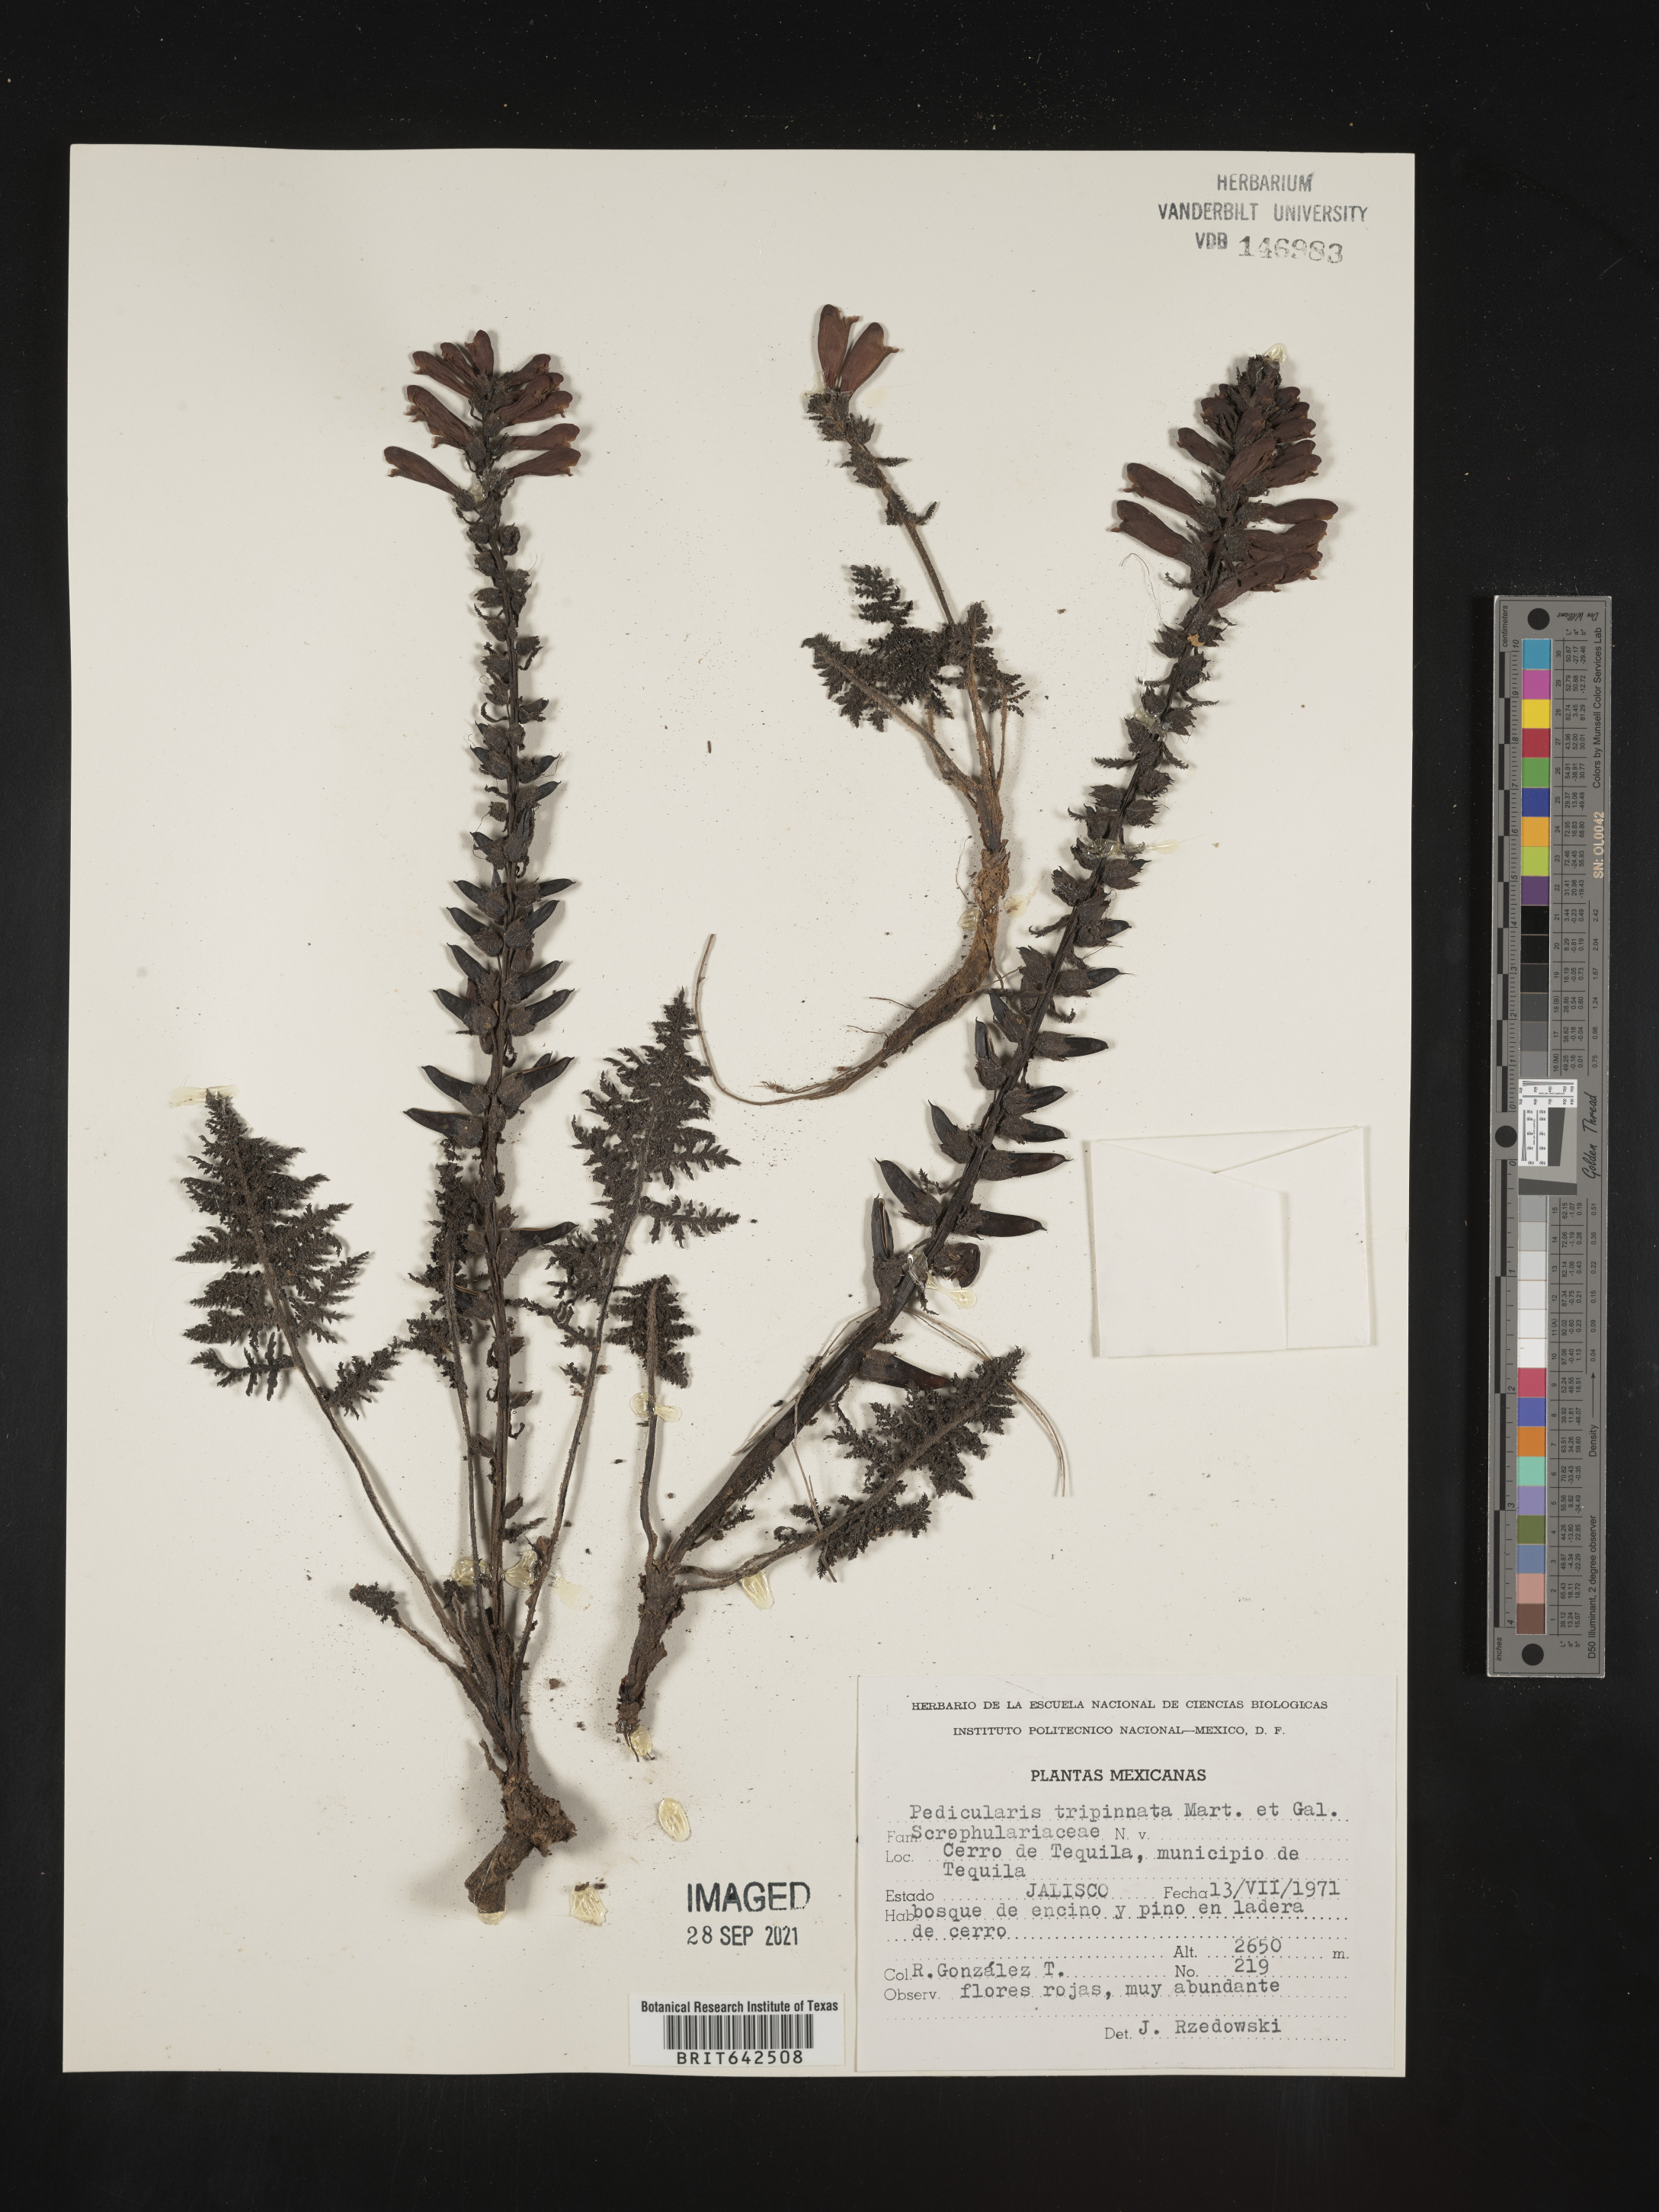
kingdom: Plantae
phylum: Tracheophyta
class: Magnoliopsida
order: Lamiales
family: Orobanchaceae
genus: Pedicularis
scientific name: Pedicularis
